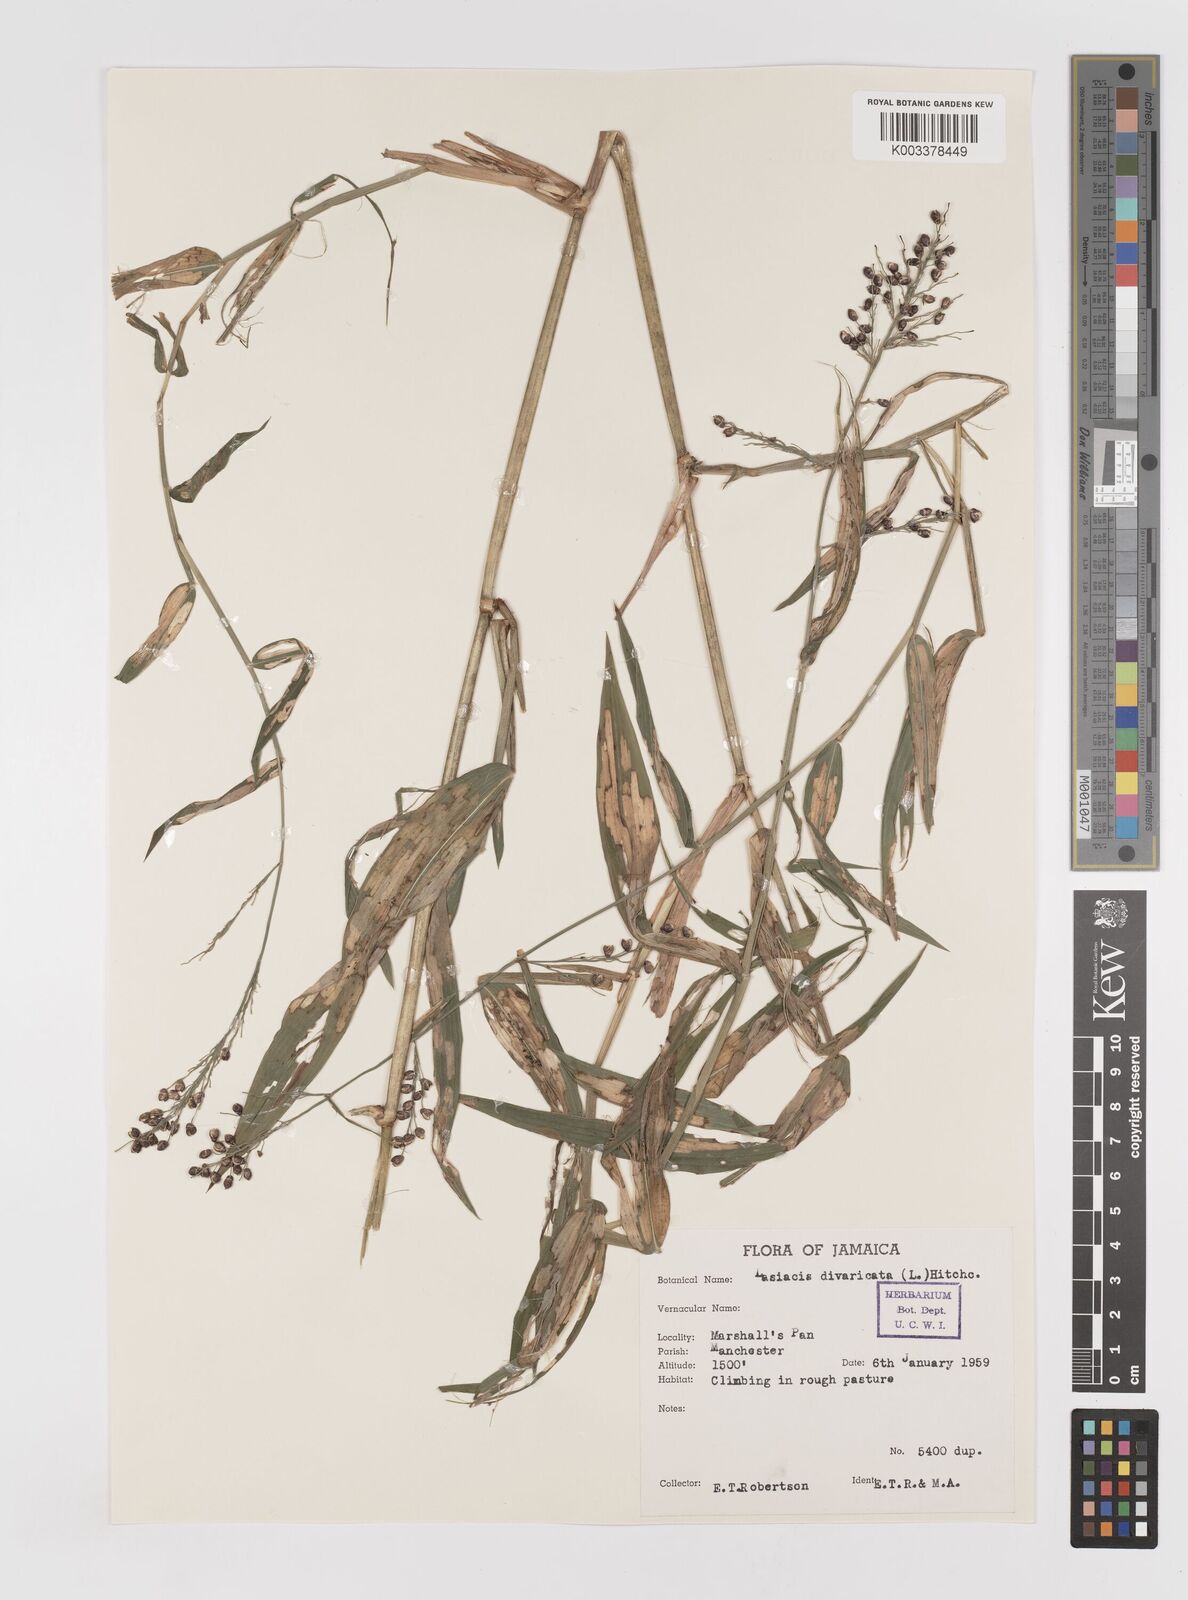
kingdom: Plantae
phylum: Tracheophyta
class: Liliopsida
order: Poales
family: Poaceae
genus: Lasiacis
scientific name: Lasiacis divaricata
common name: Smallcane
